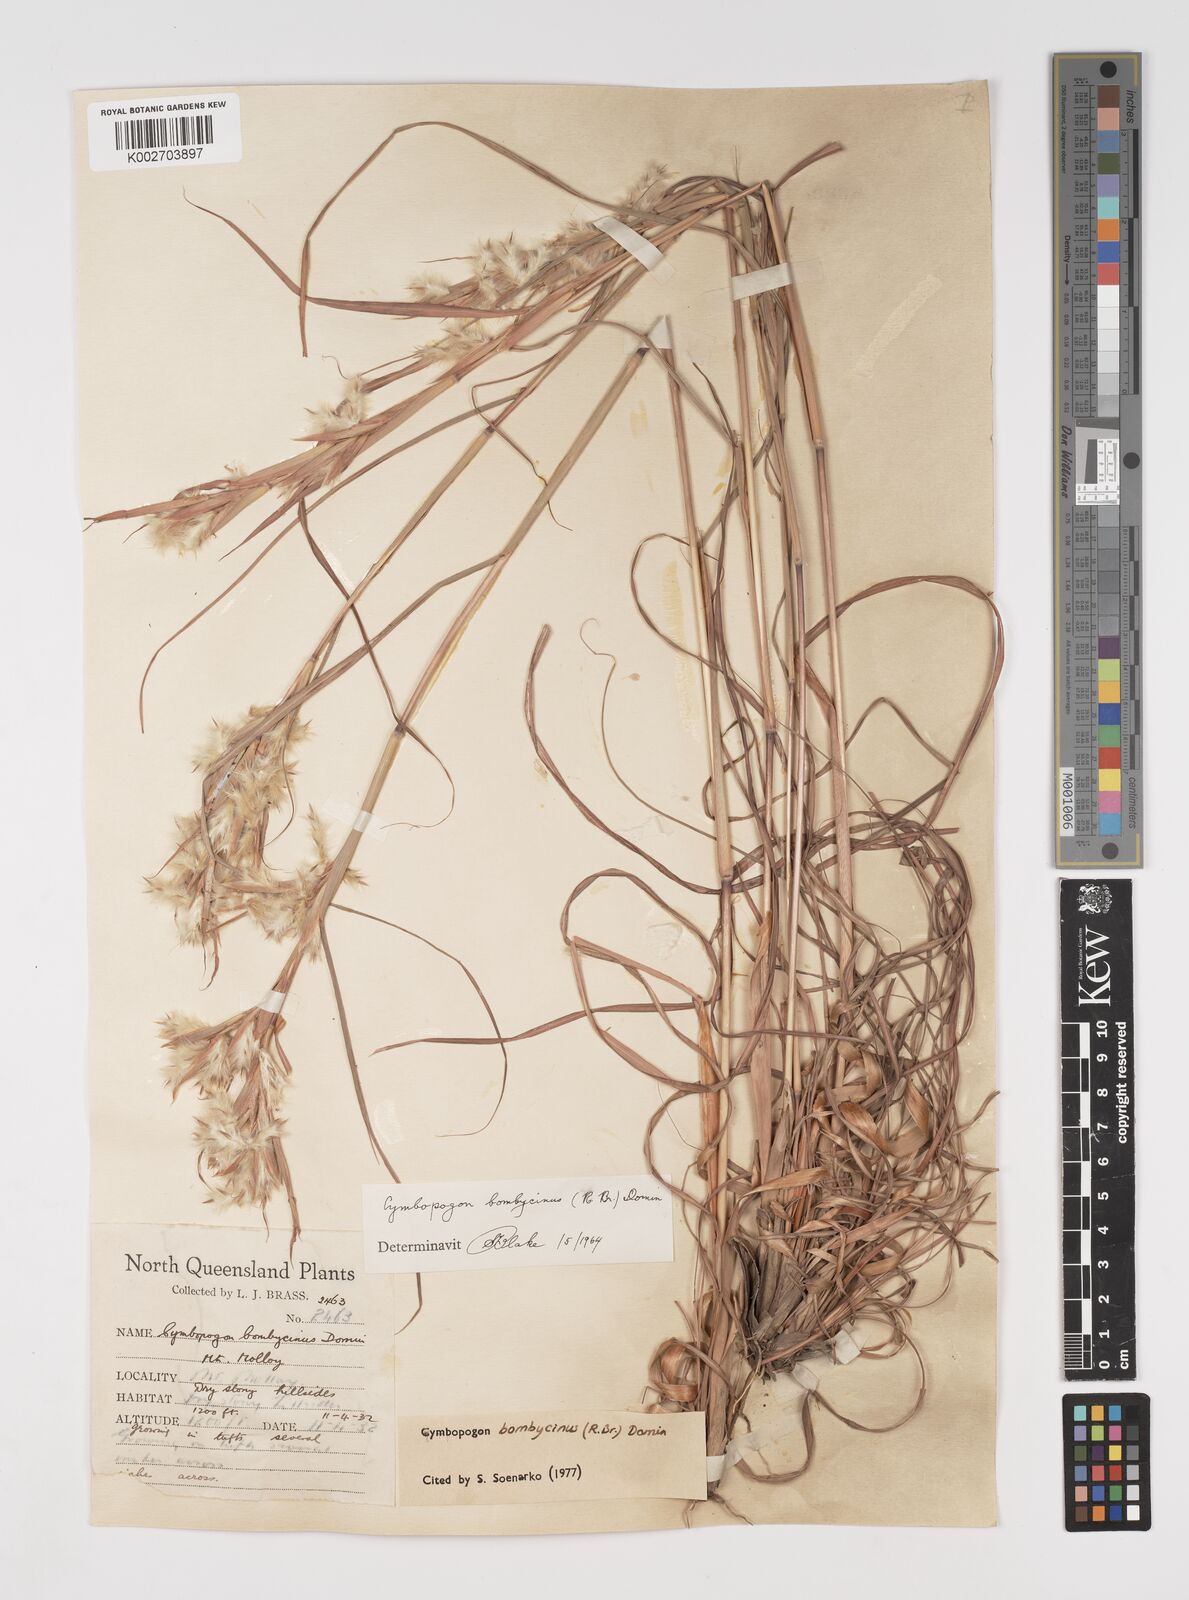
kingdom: Plantae
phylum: Tracheophyta
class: Liliopsida
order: Poales
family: Poaceae
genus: Cymbopogon
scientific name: Cymbopogon bombycinus
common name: Citronella grass
